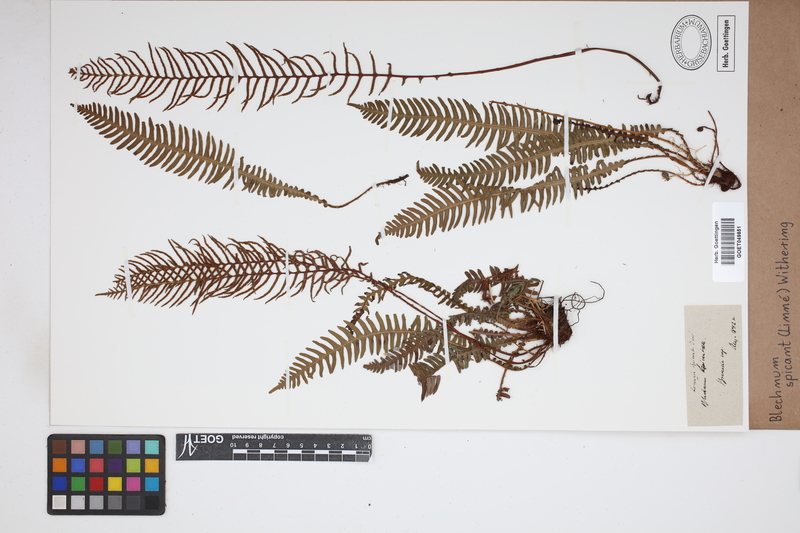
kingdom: Plantae
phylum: Tracheophyta
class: Polypodiopsida
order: Polypodiales
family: Blechnaceae
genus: Struthiopteris
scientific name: Struthiopteris spicant
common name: Deer fern
